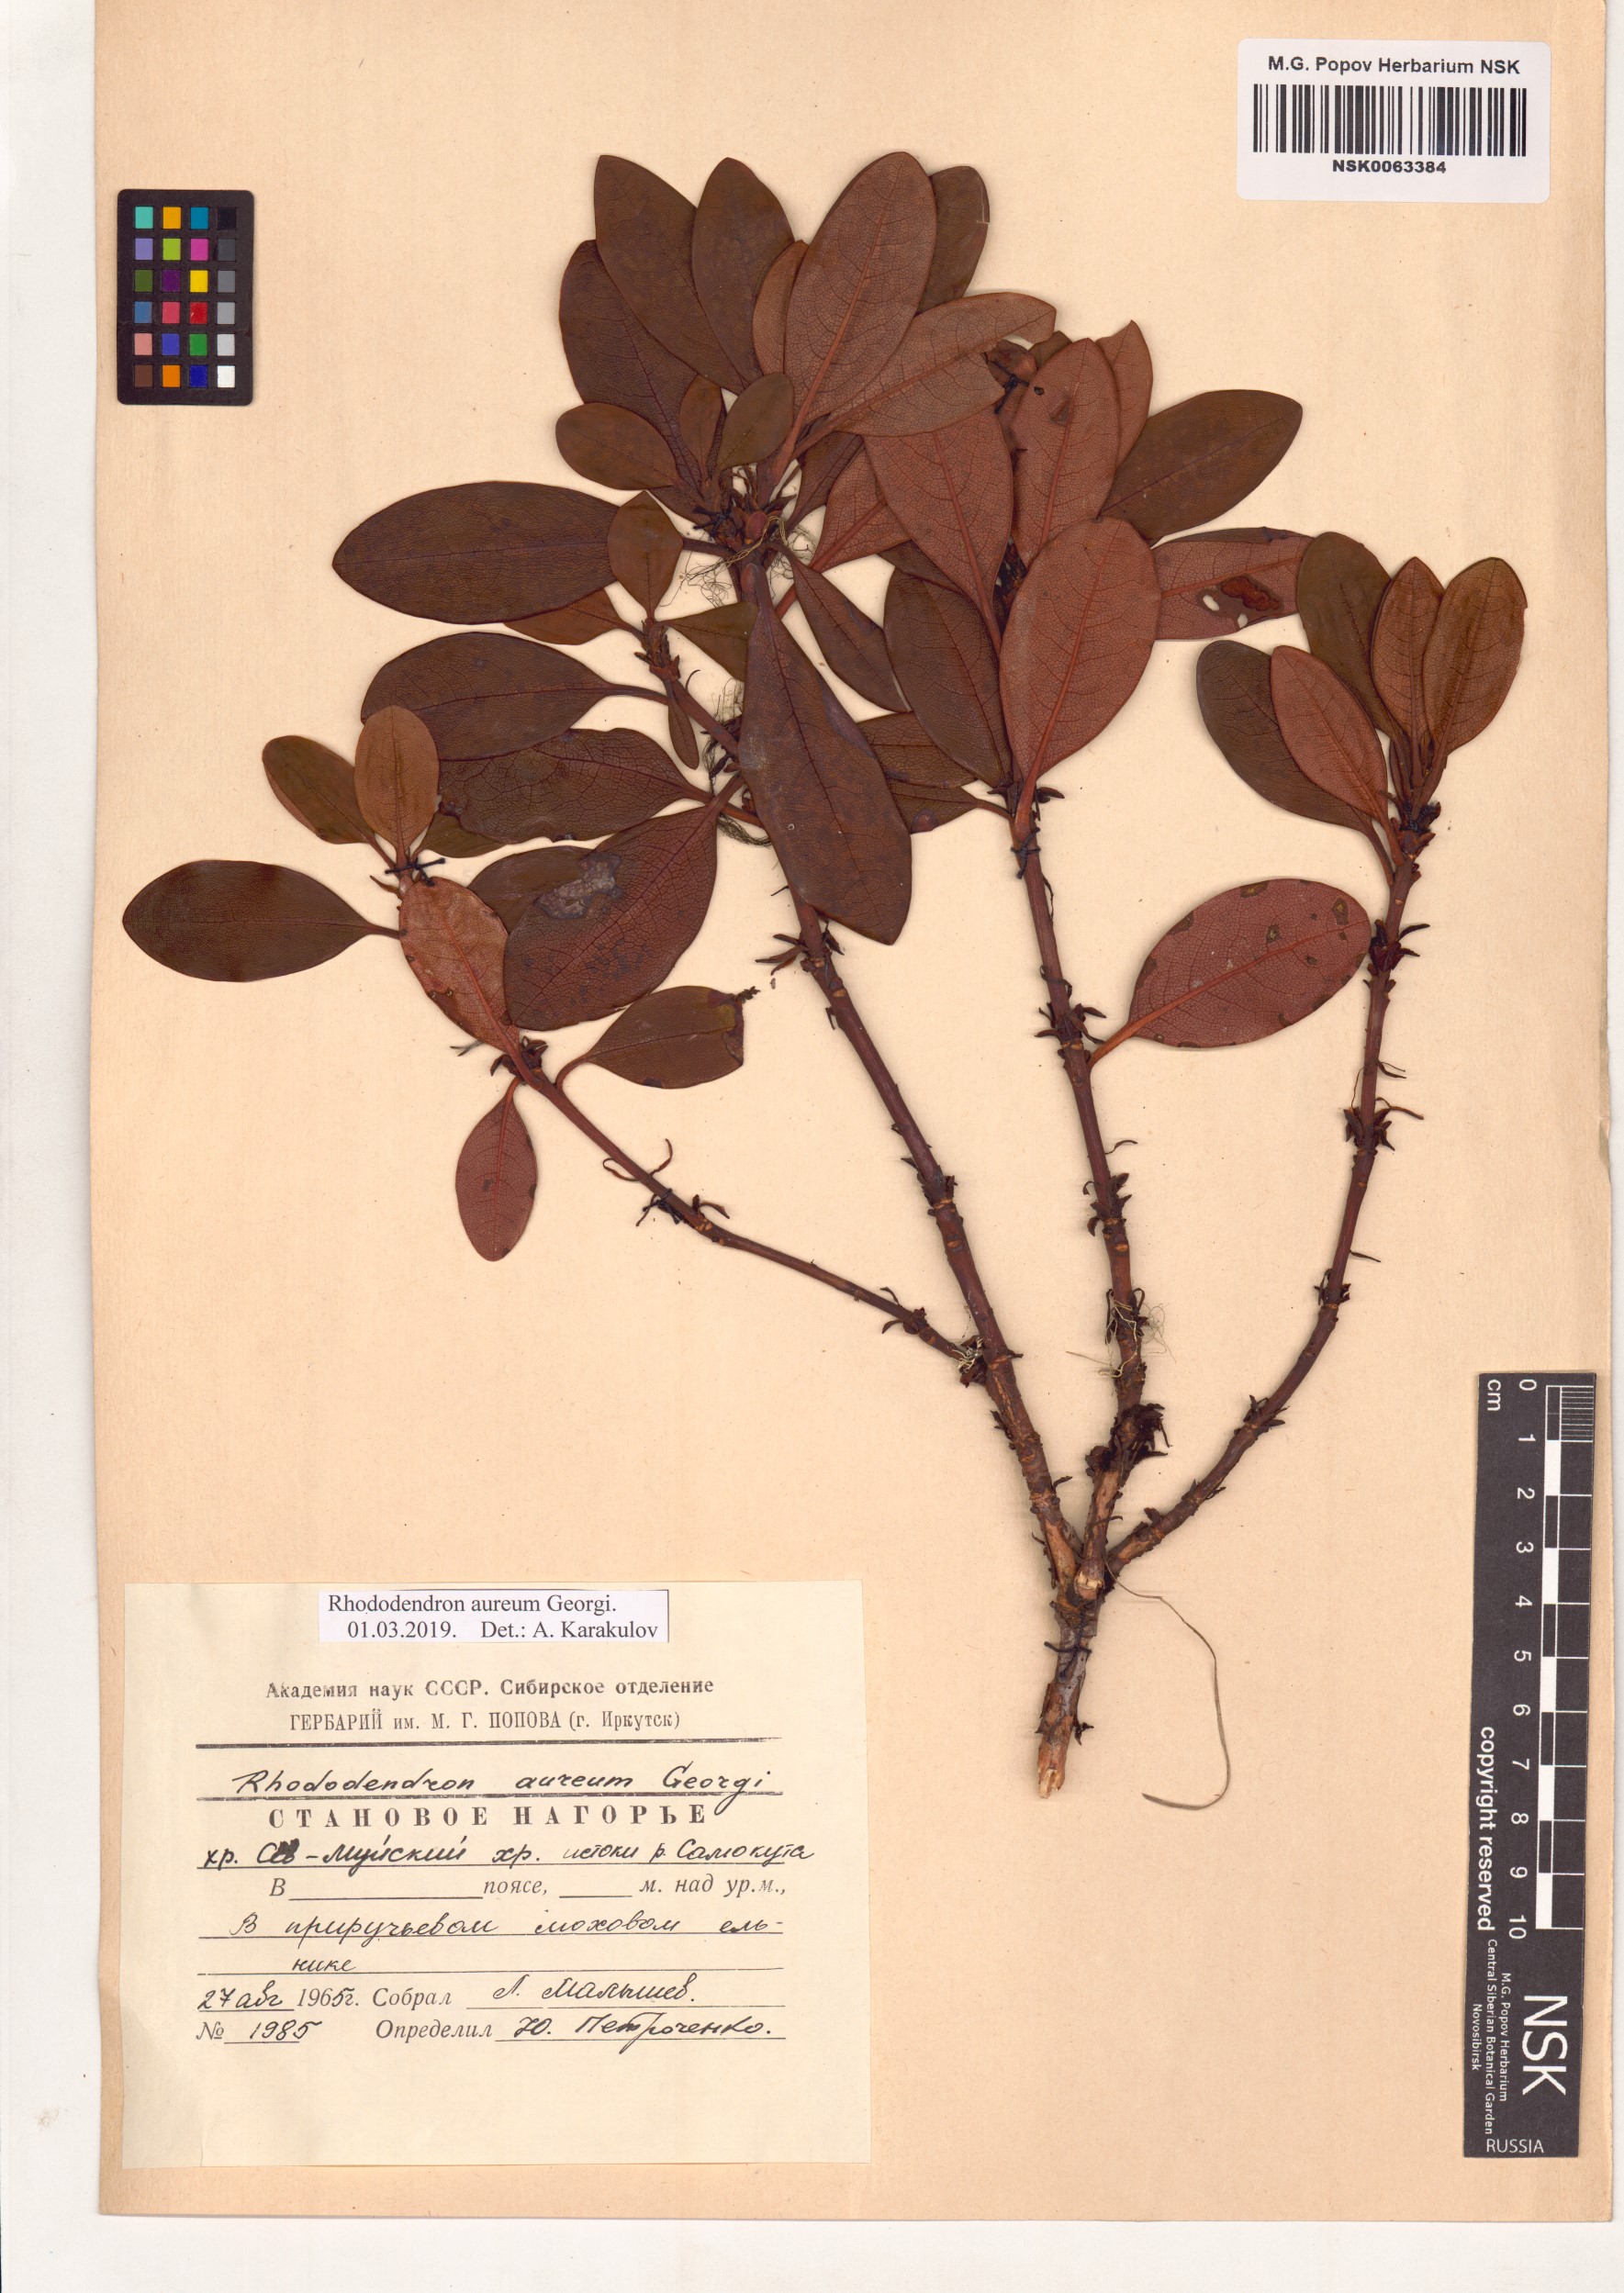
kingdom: Plantae
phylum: Tracheophyta
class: Magnoliopsida
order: Ericales
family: Ericaceae
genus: Rhododendron
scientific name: Rhododendron aureum
